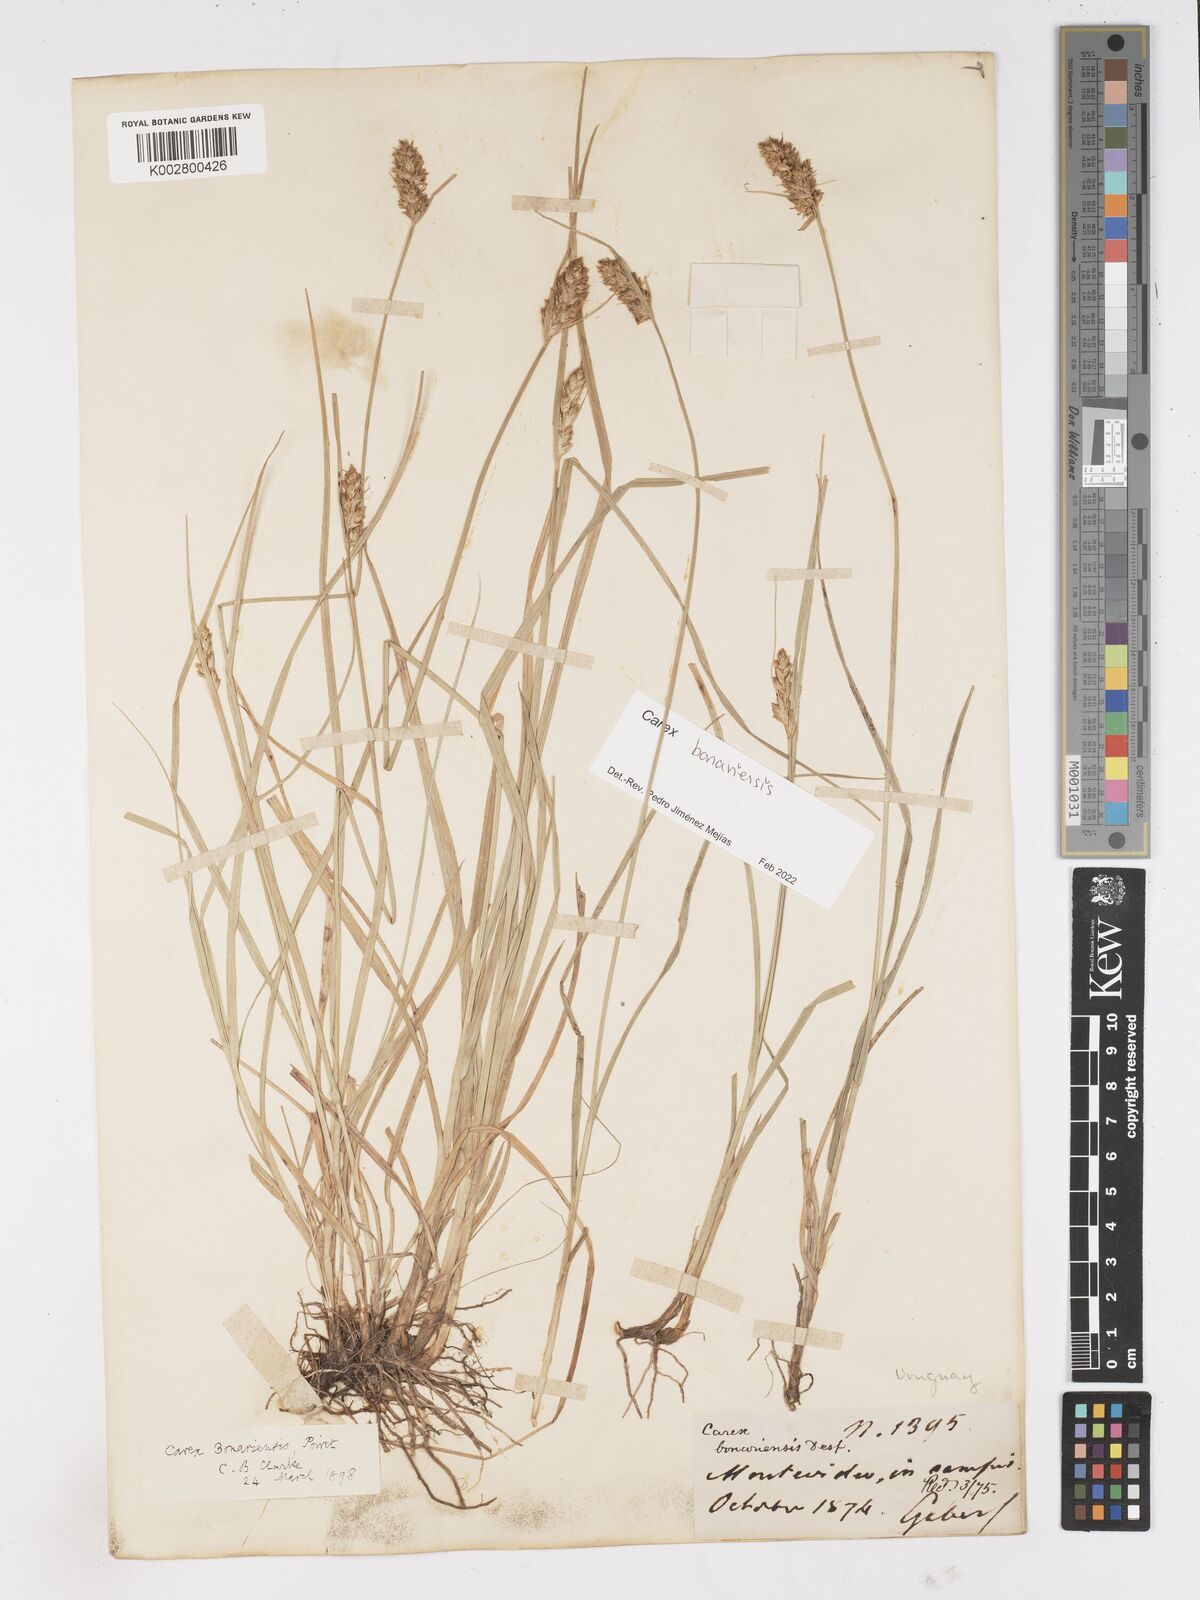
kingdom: Plantae
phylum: Tracheophyta
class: Liliopsida
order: Poales
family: Cyperaceae
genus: Carex
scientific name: Carex bonariensis
